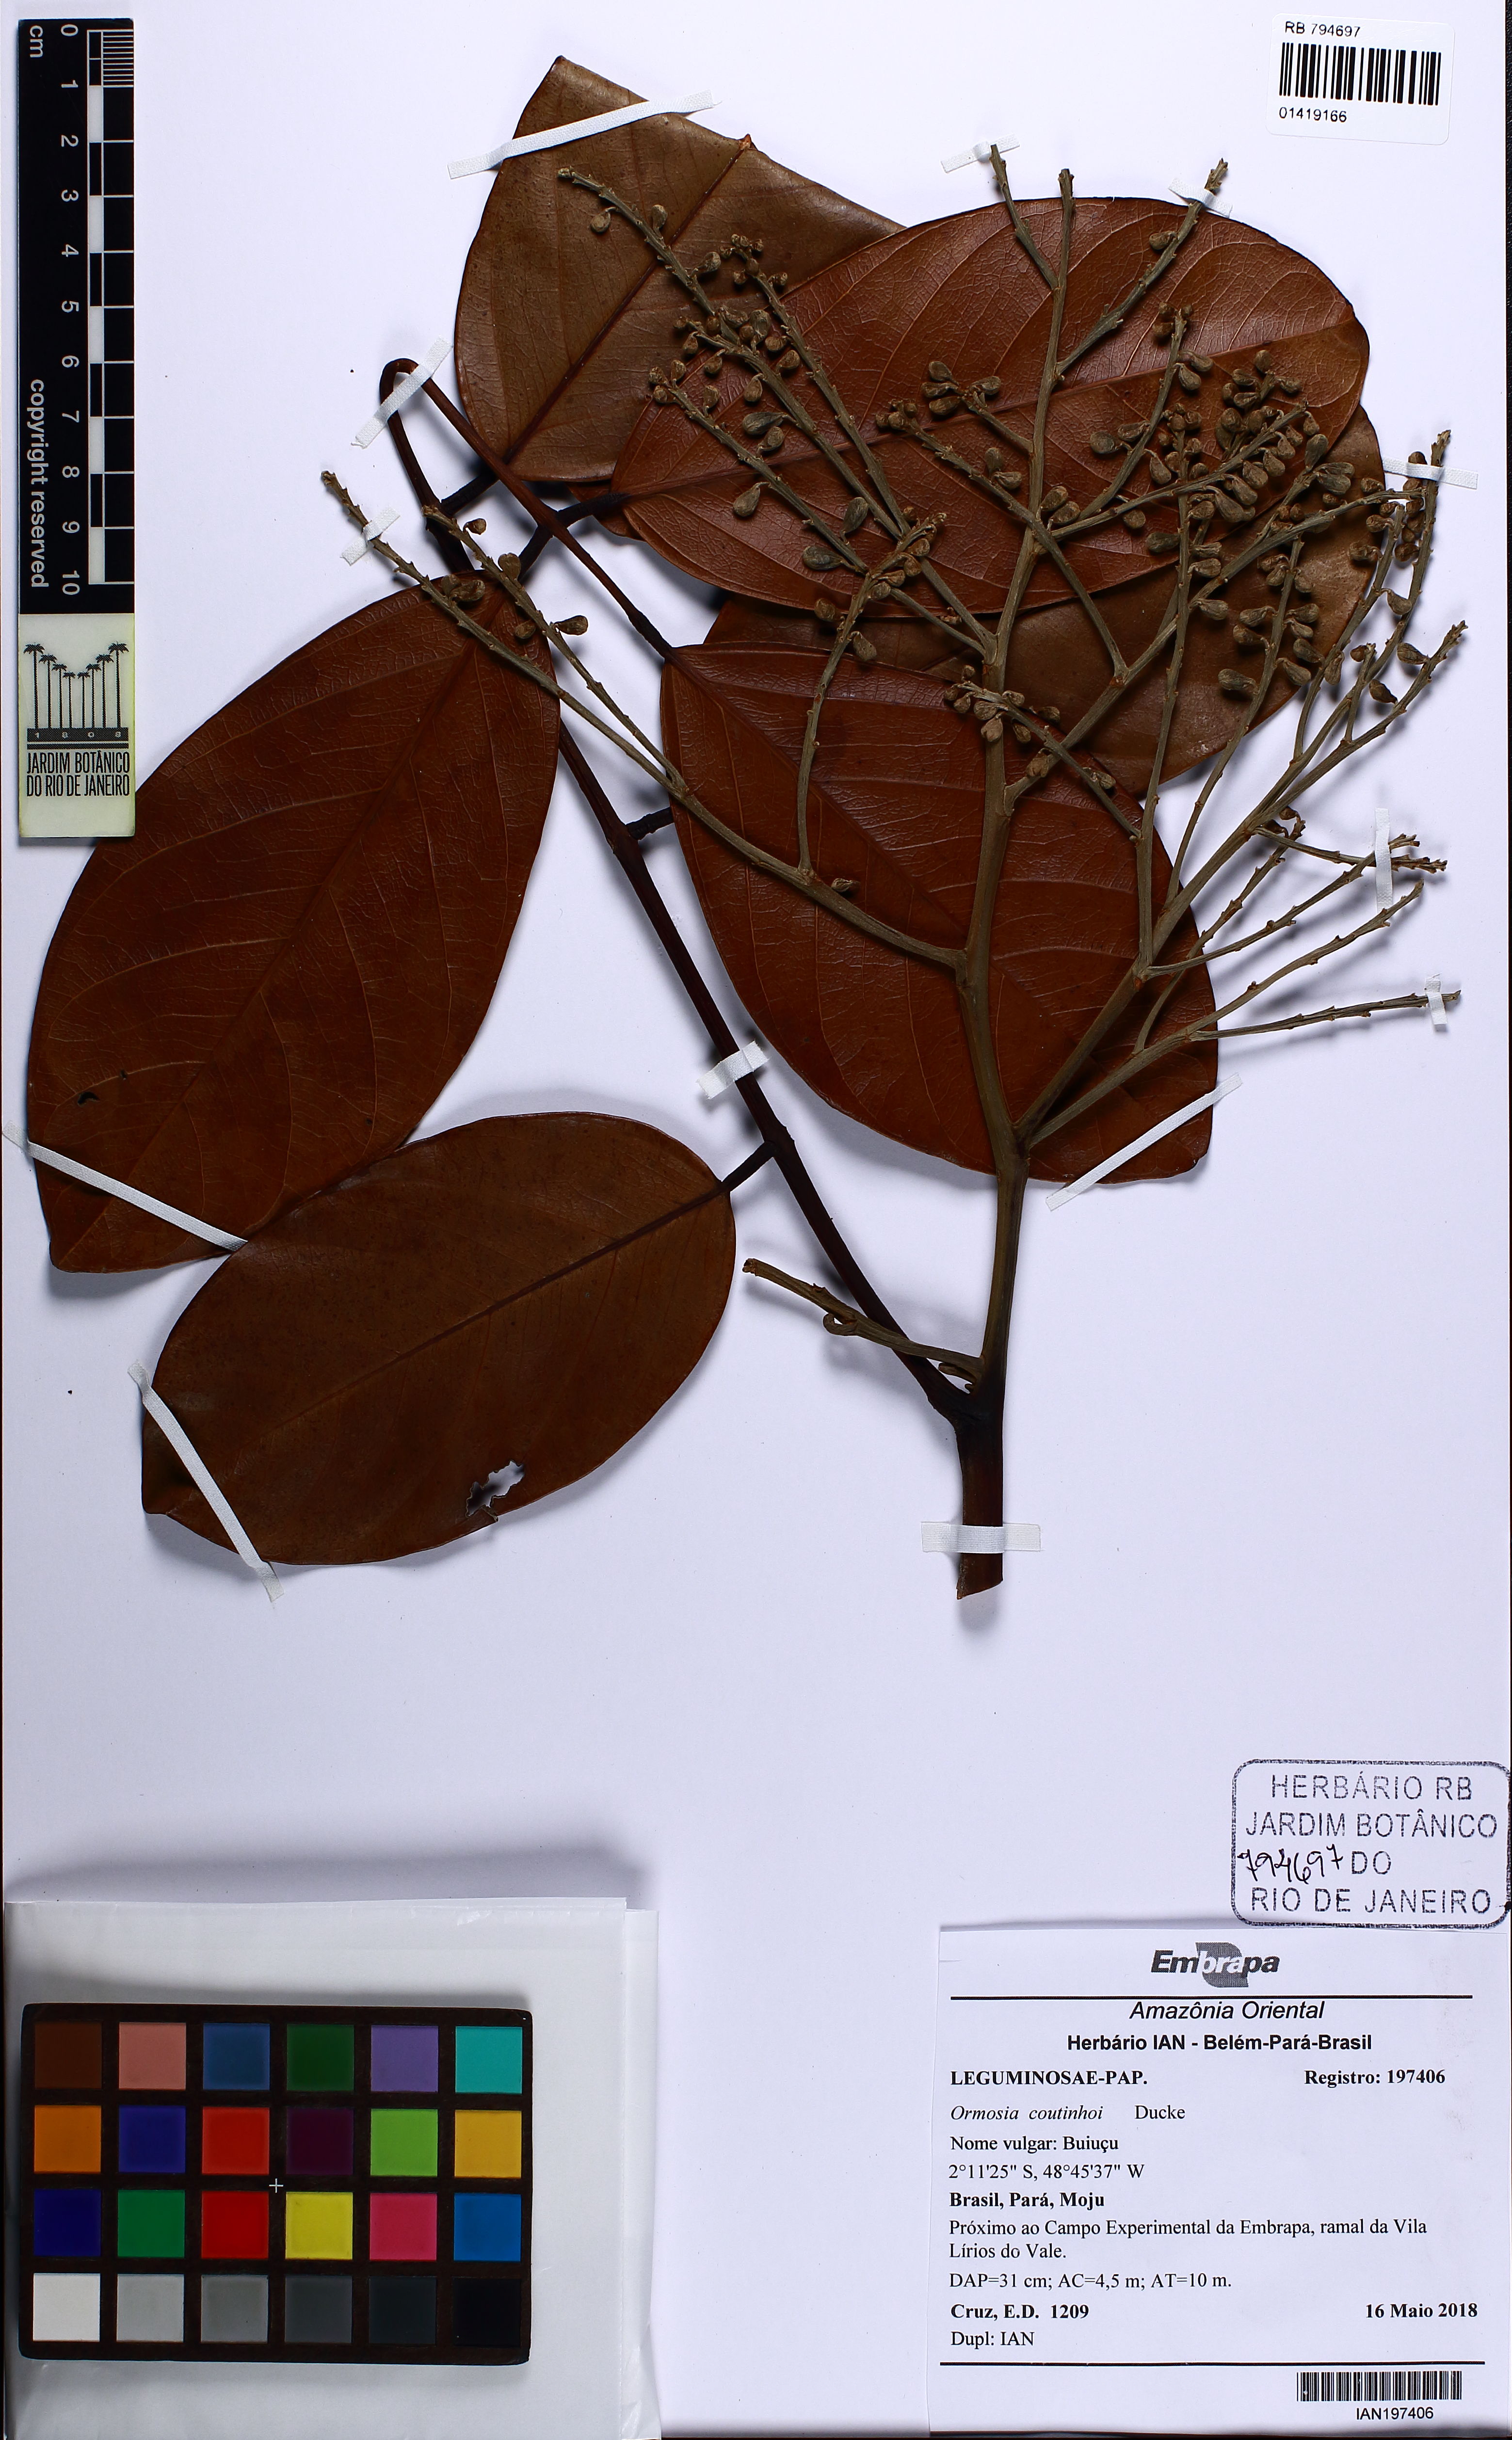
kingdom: Plantae
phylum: Tracheophyta
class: Magnoliopsida
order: Fabales
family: Fabaceae
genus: Ormosia
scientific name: Ormosia coutinhoi
